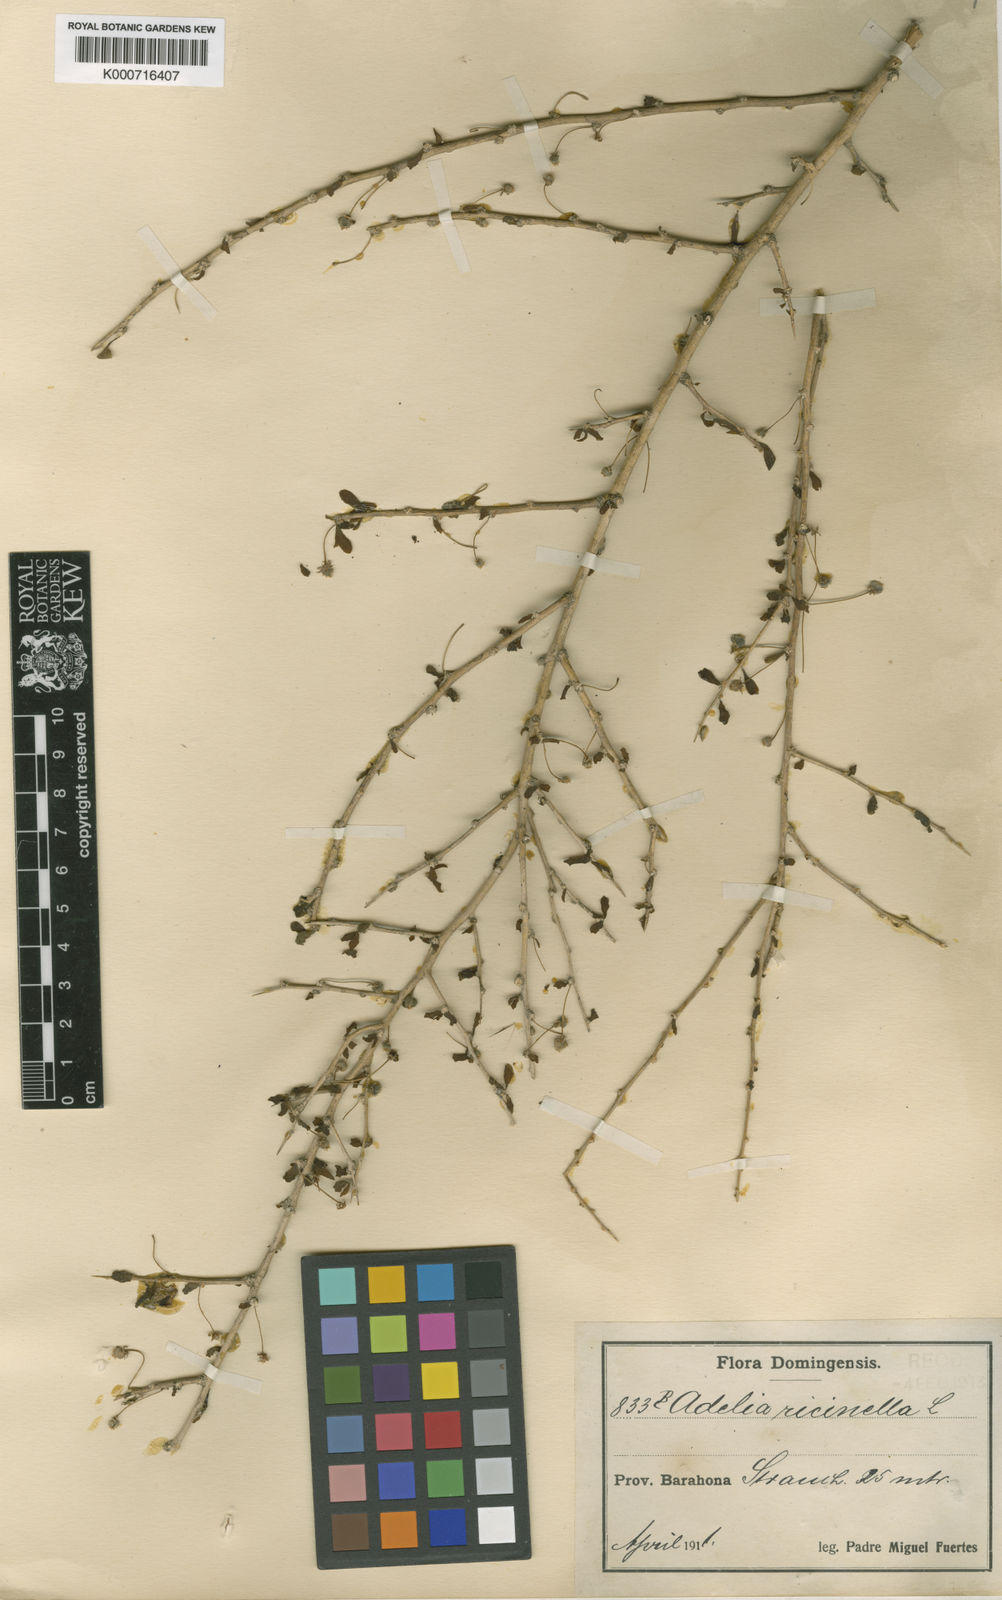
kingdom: Plantae
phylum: Tracheophyta
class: Magnoliopsida
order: Malpighiales
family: Euphorbiaceae
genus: Adelia
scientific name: Adelia ricinella
